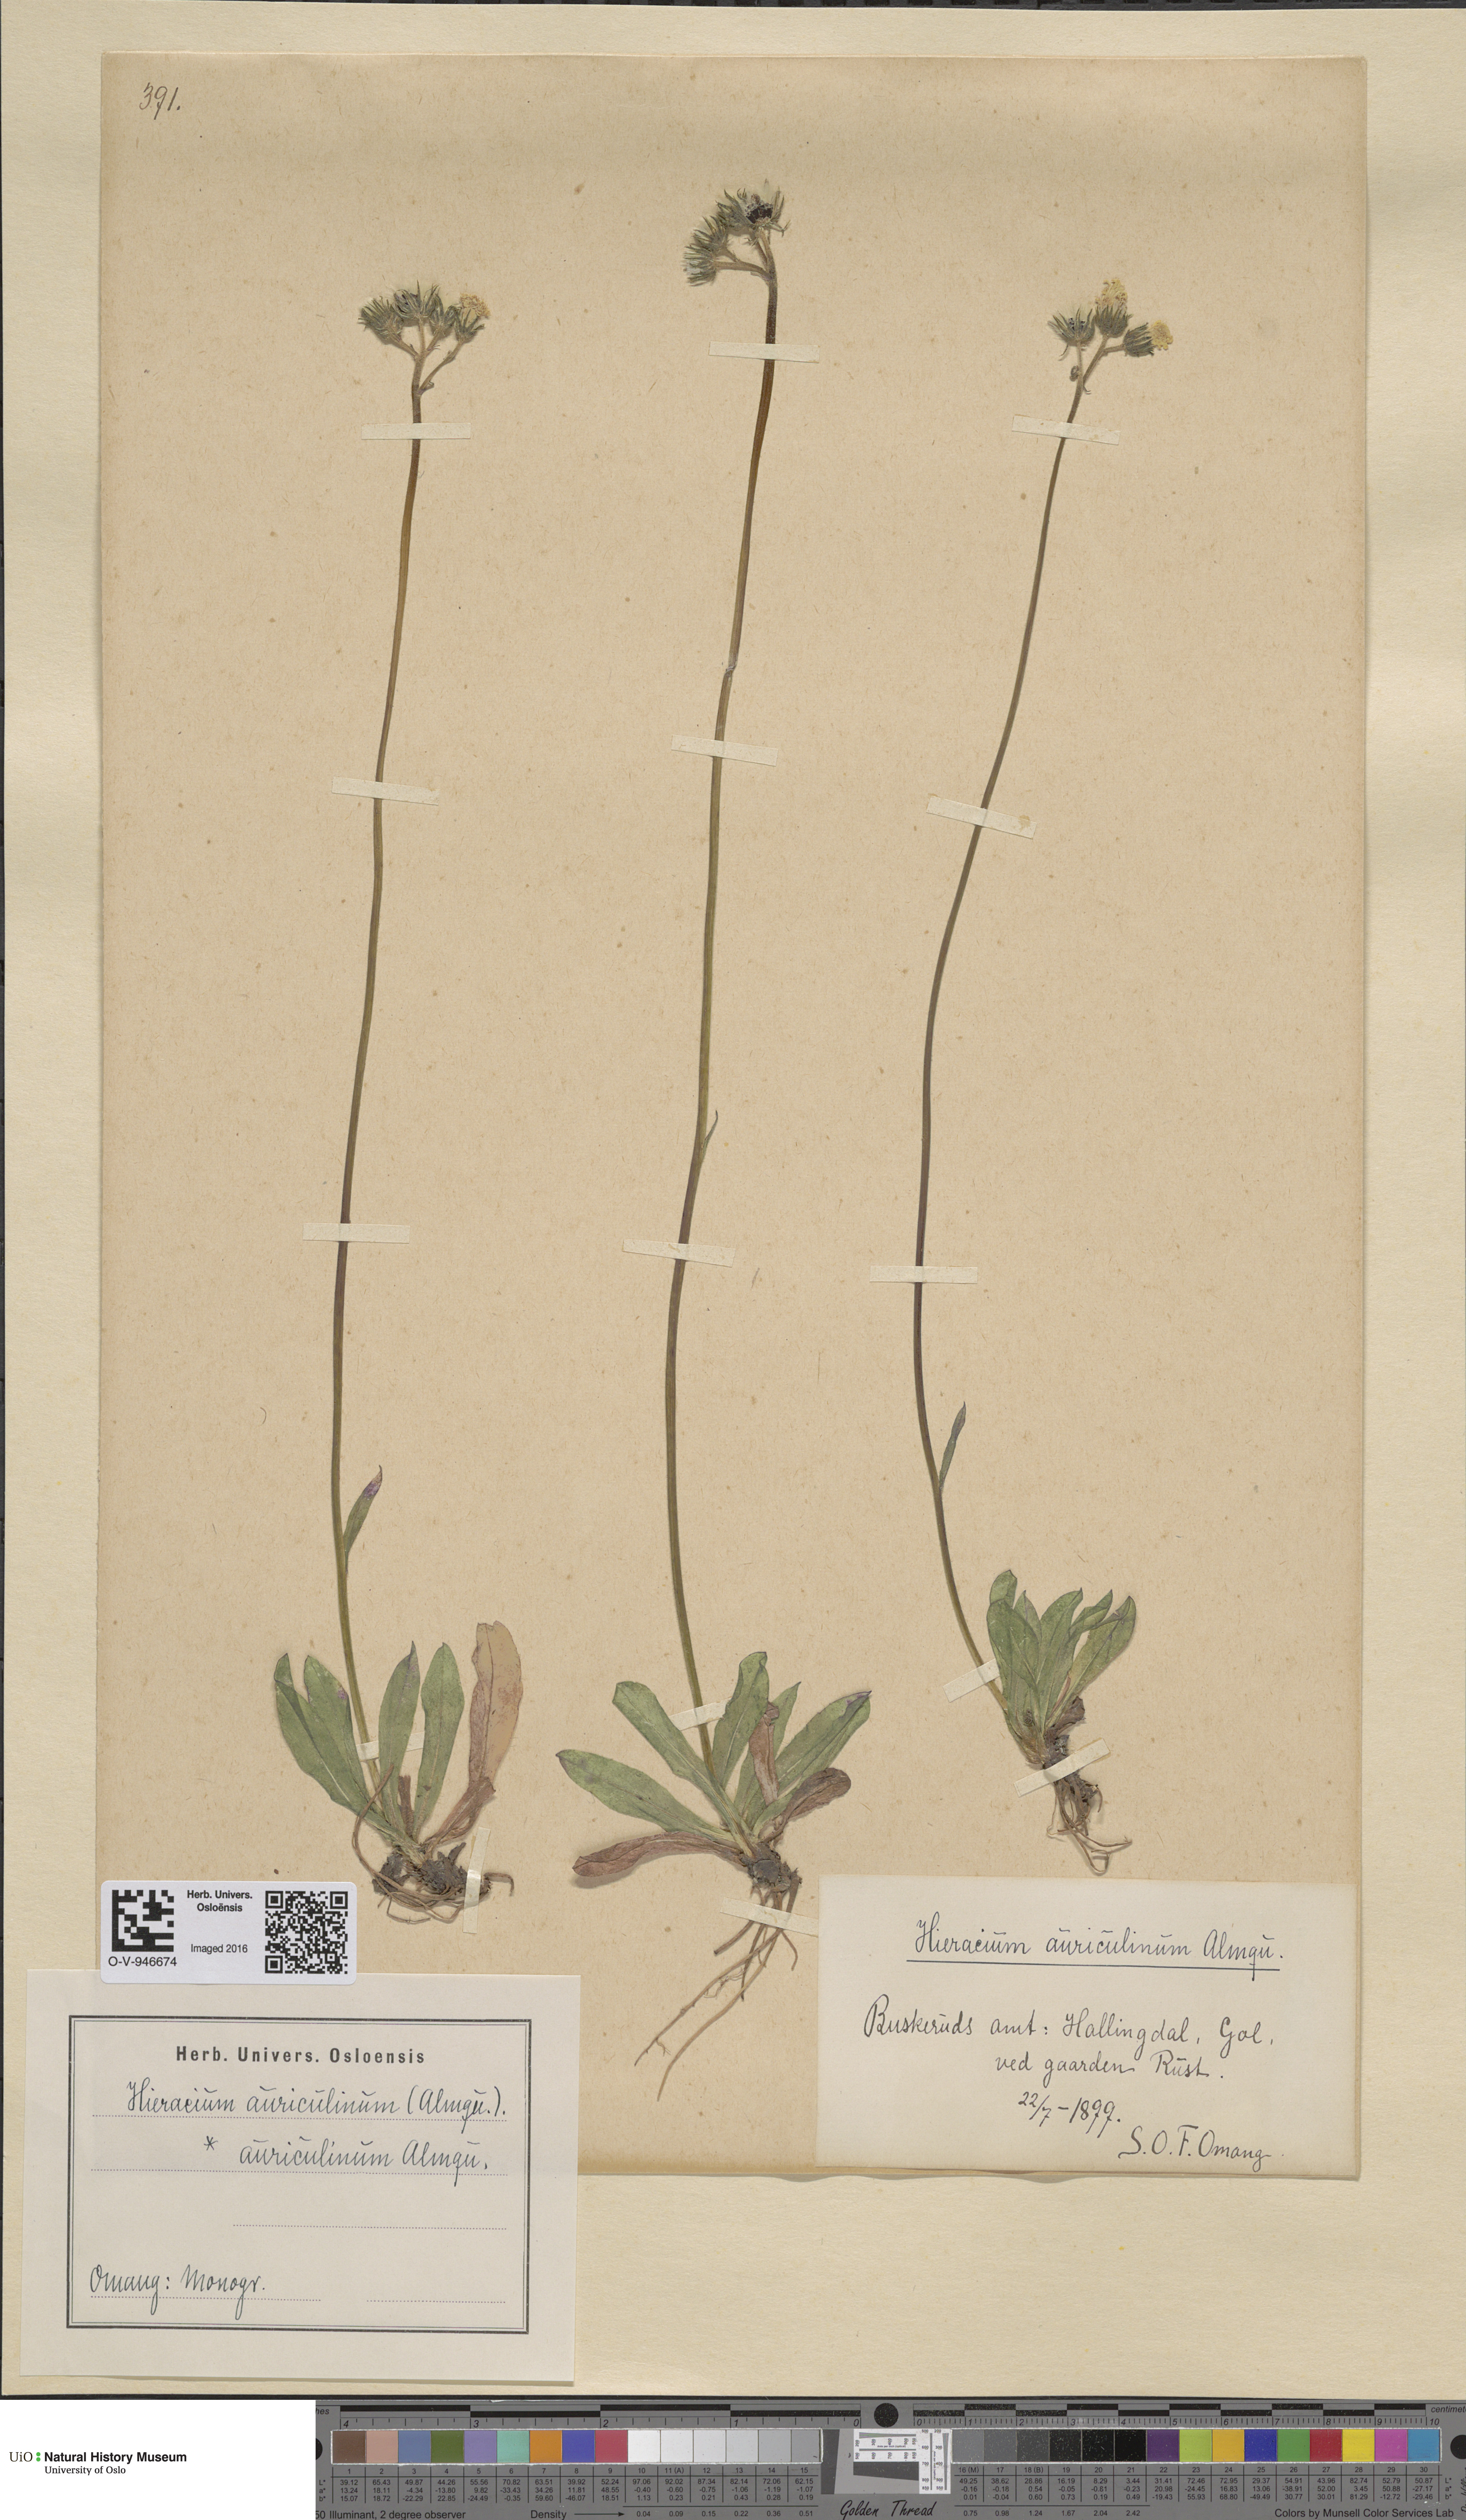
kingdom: Plantae
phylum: Tracheophyta
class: Magnoliopsida
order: Asterales
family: Asteraceae
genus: Pilosella
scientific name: Pilosella dubia
